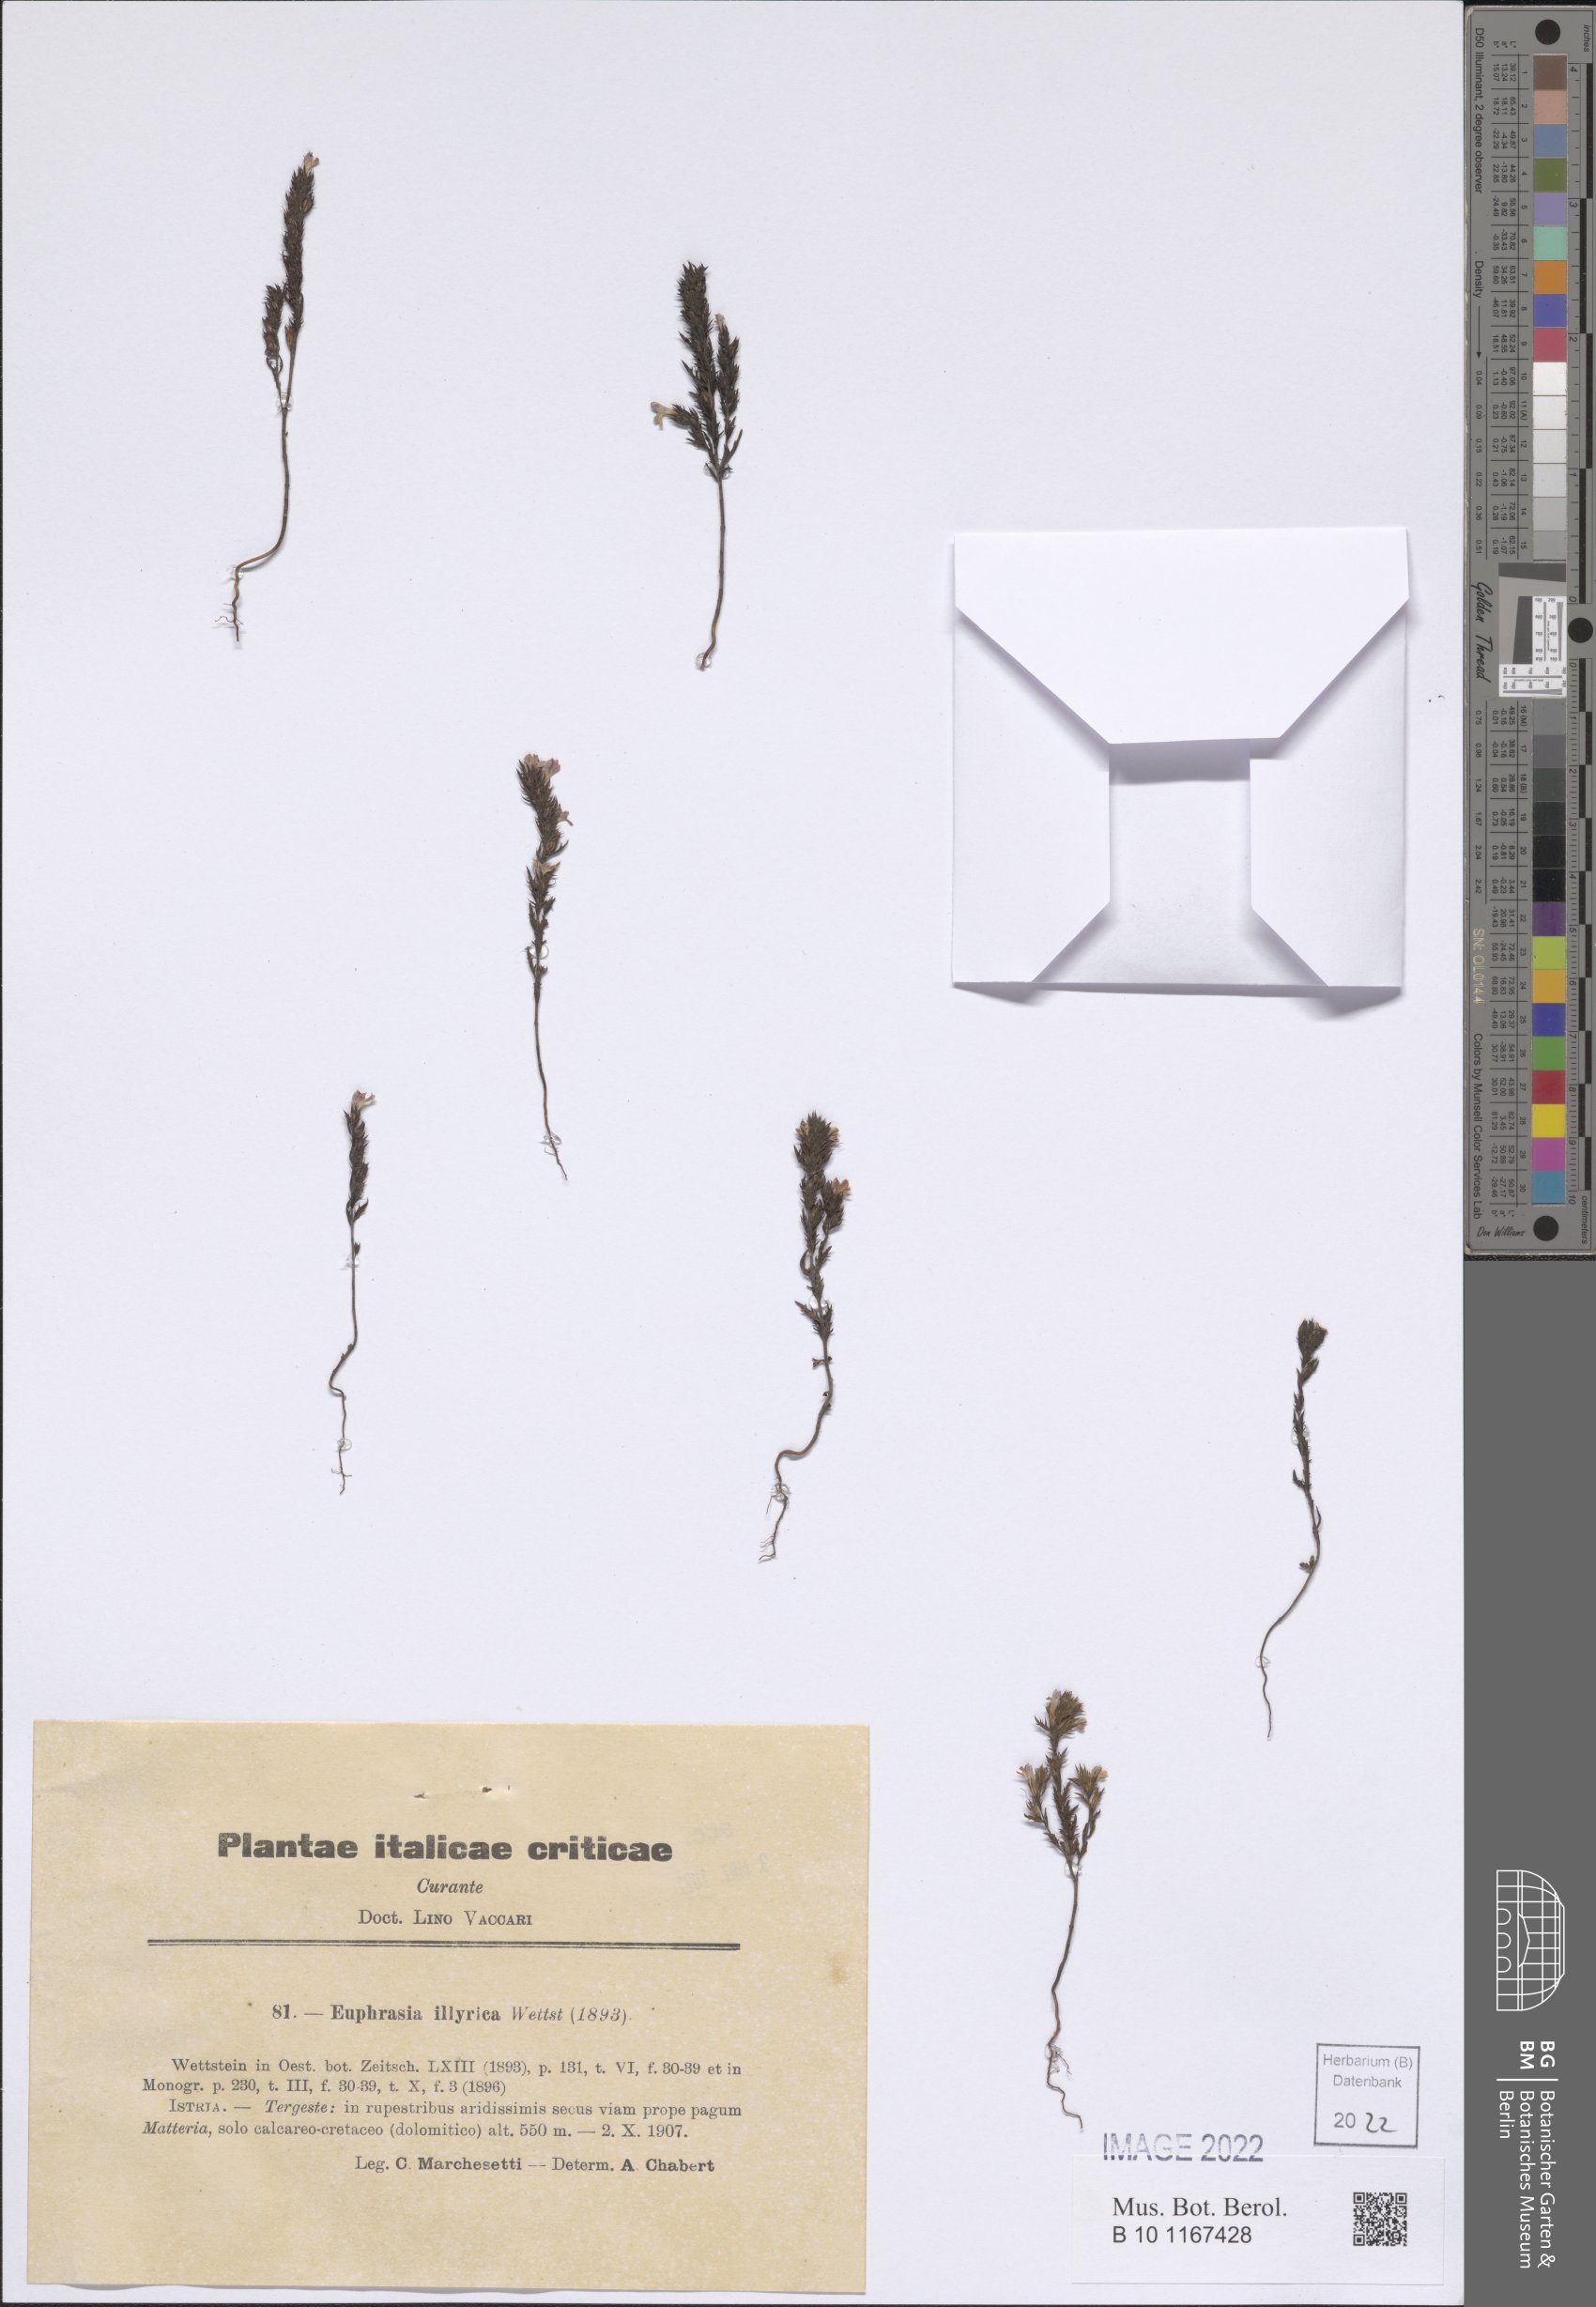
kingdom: Plantae
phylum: Tracheophyta
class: Magnoliopsida
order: Lamiales
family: Orobanchaceae
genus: Euphrasia
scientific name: Euphrasia illyrica
